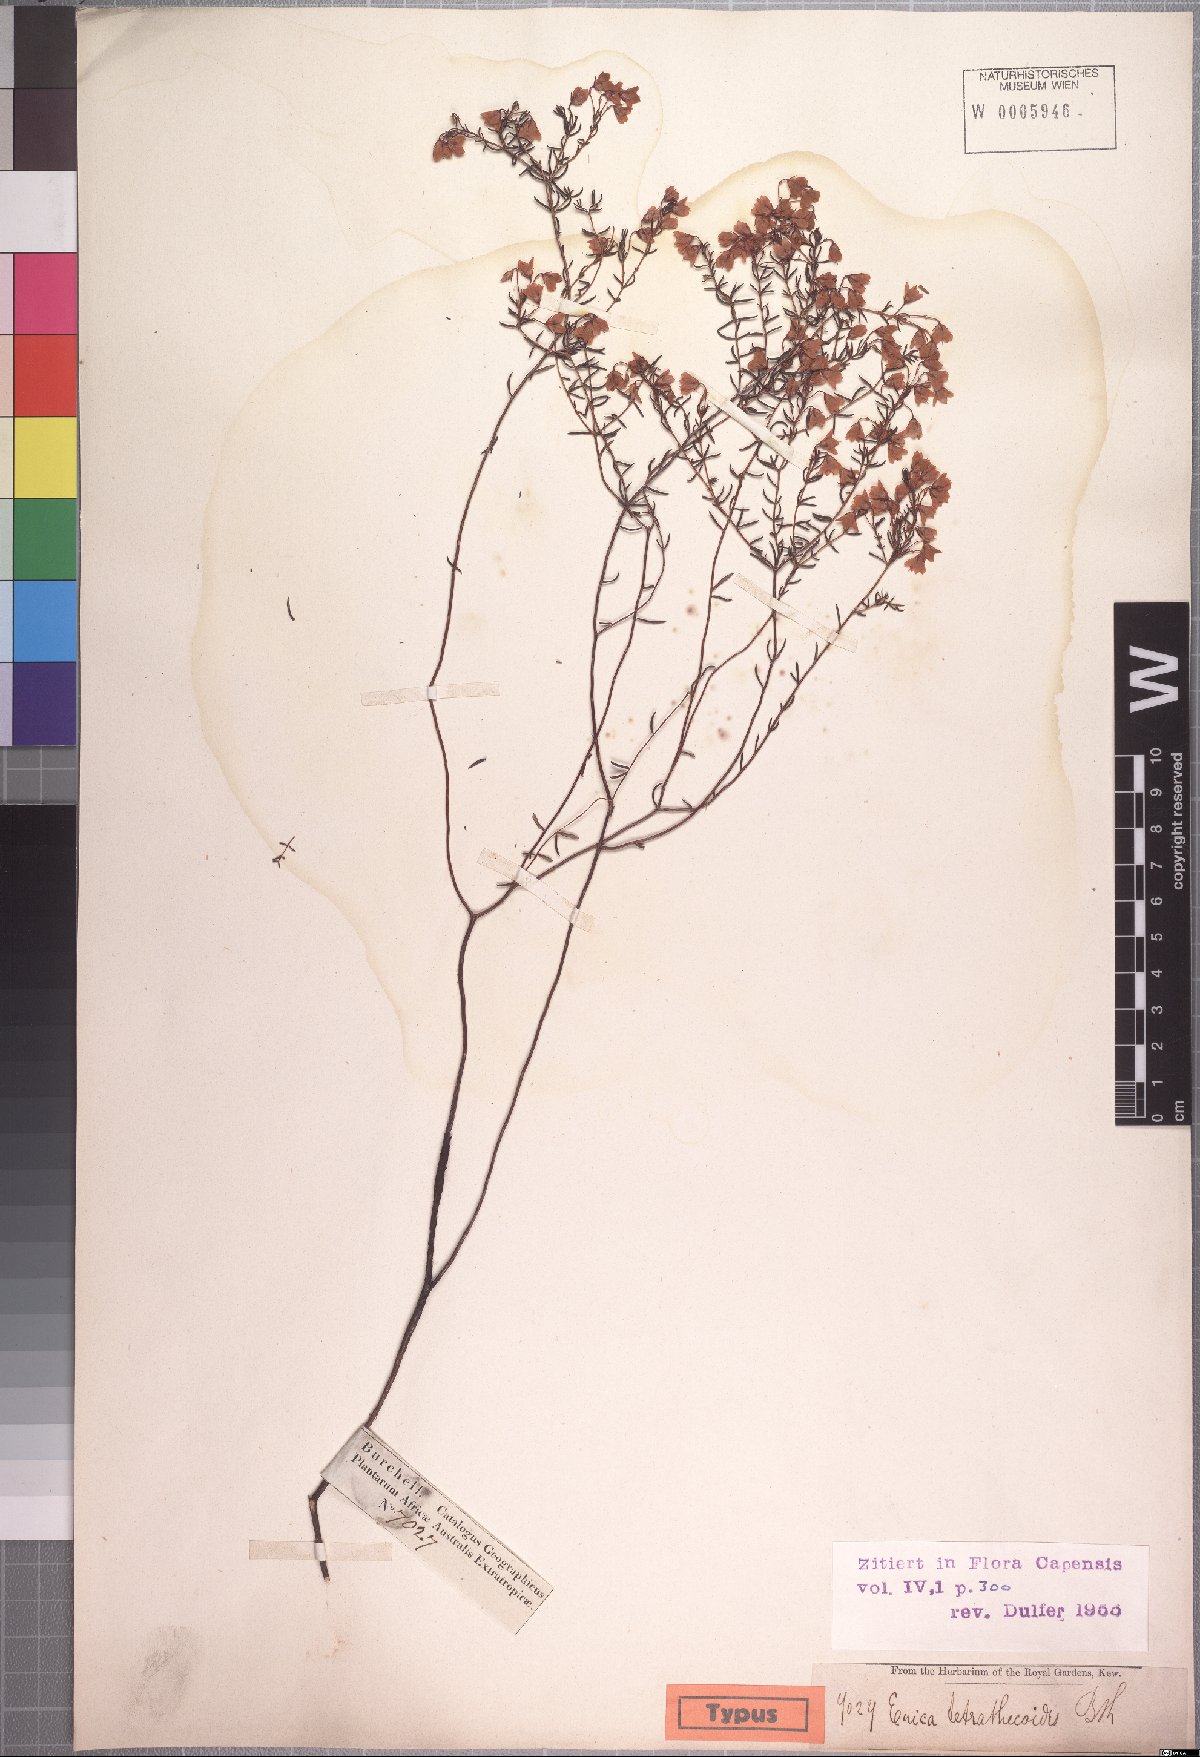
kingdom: Plantae
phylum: Tracheophyta
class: Magnoliopsida
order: Ericales
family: Ericaceae
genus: Erica
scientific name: Erica tetrathecoides
